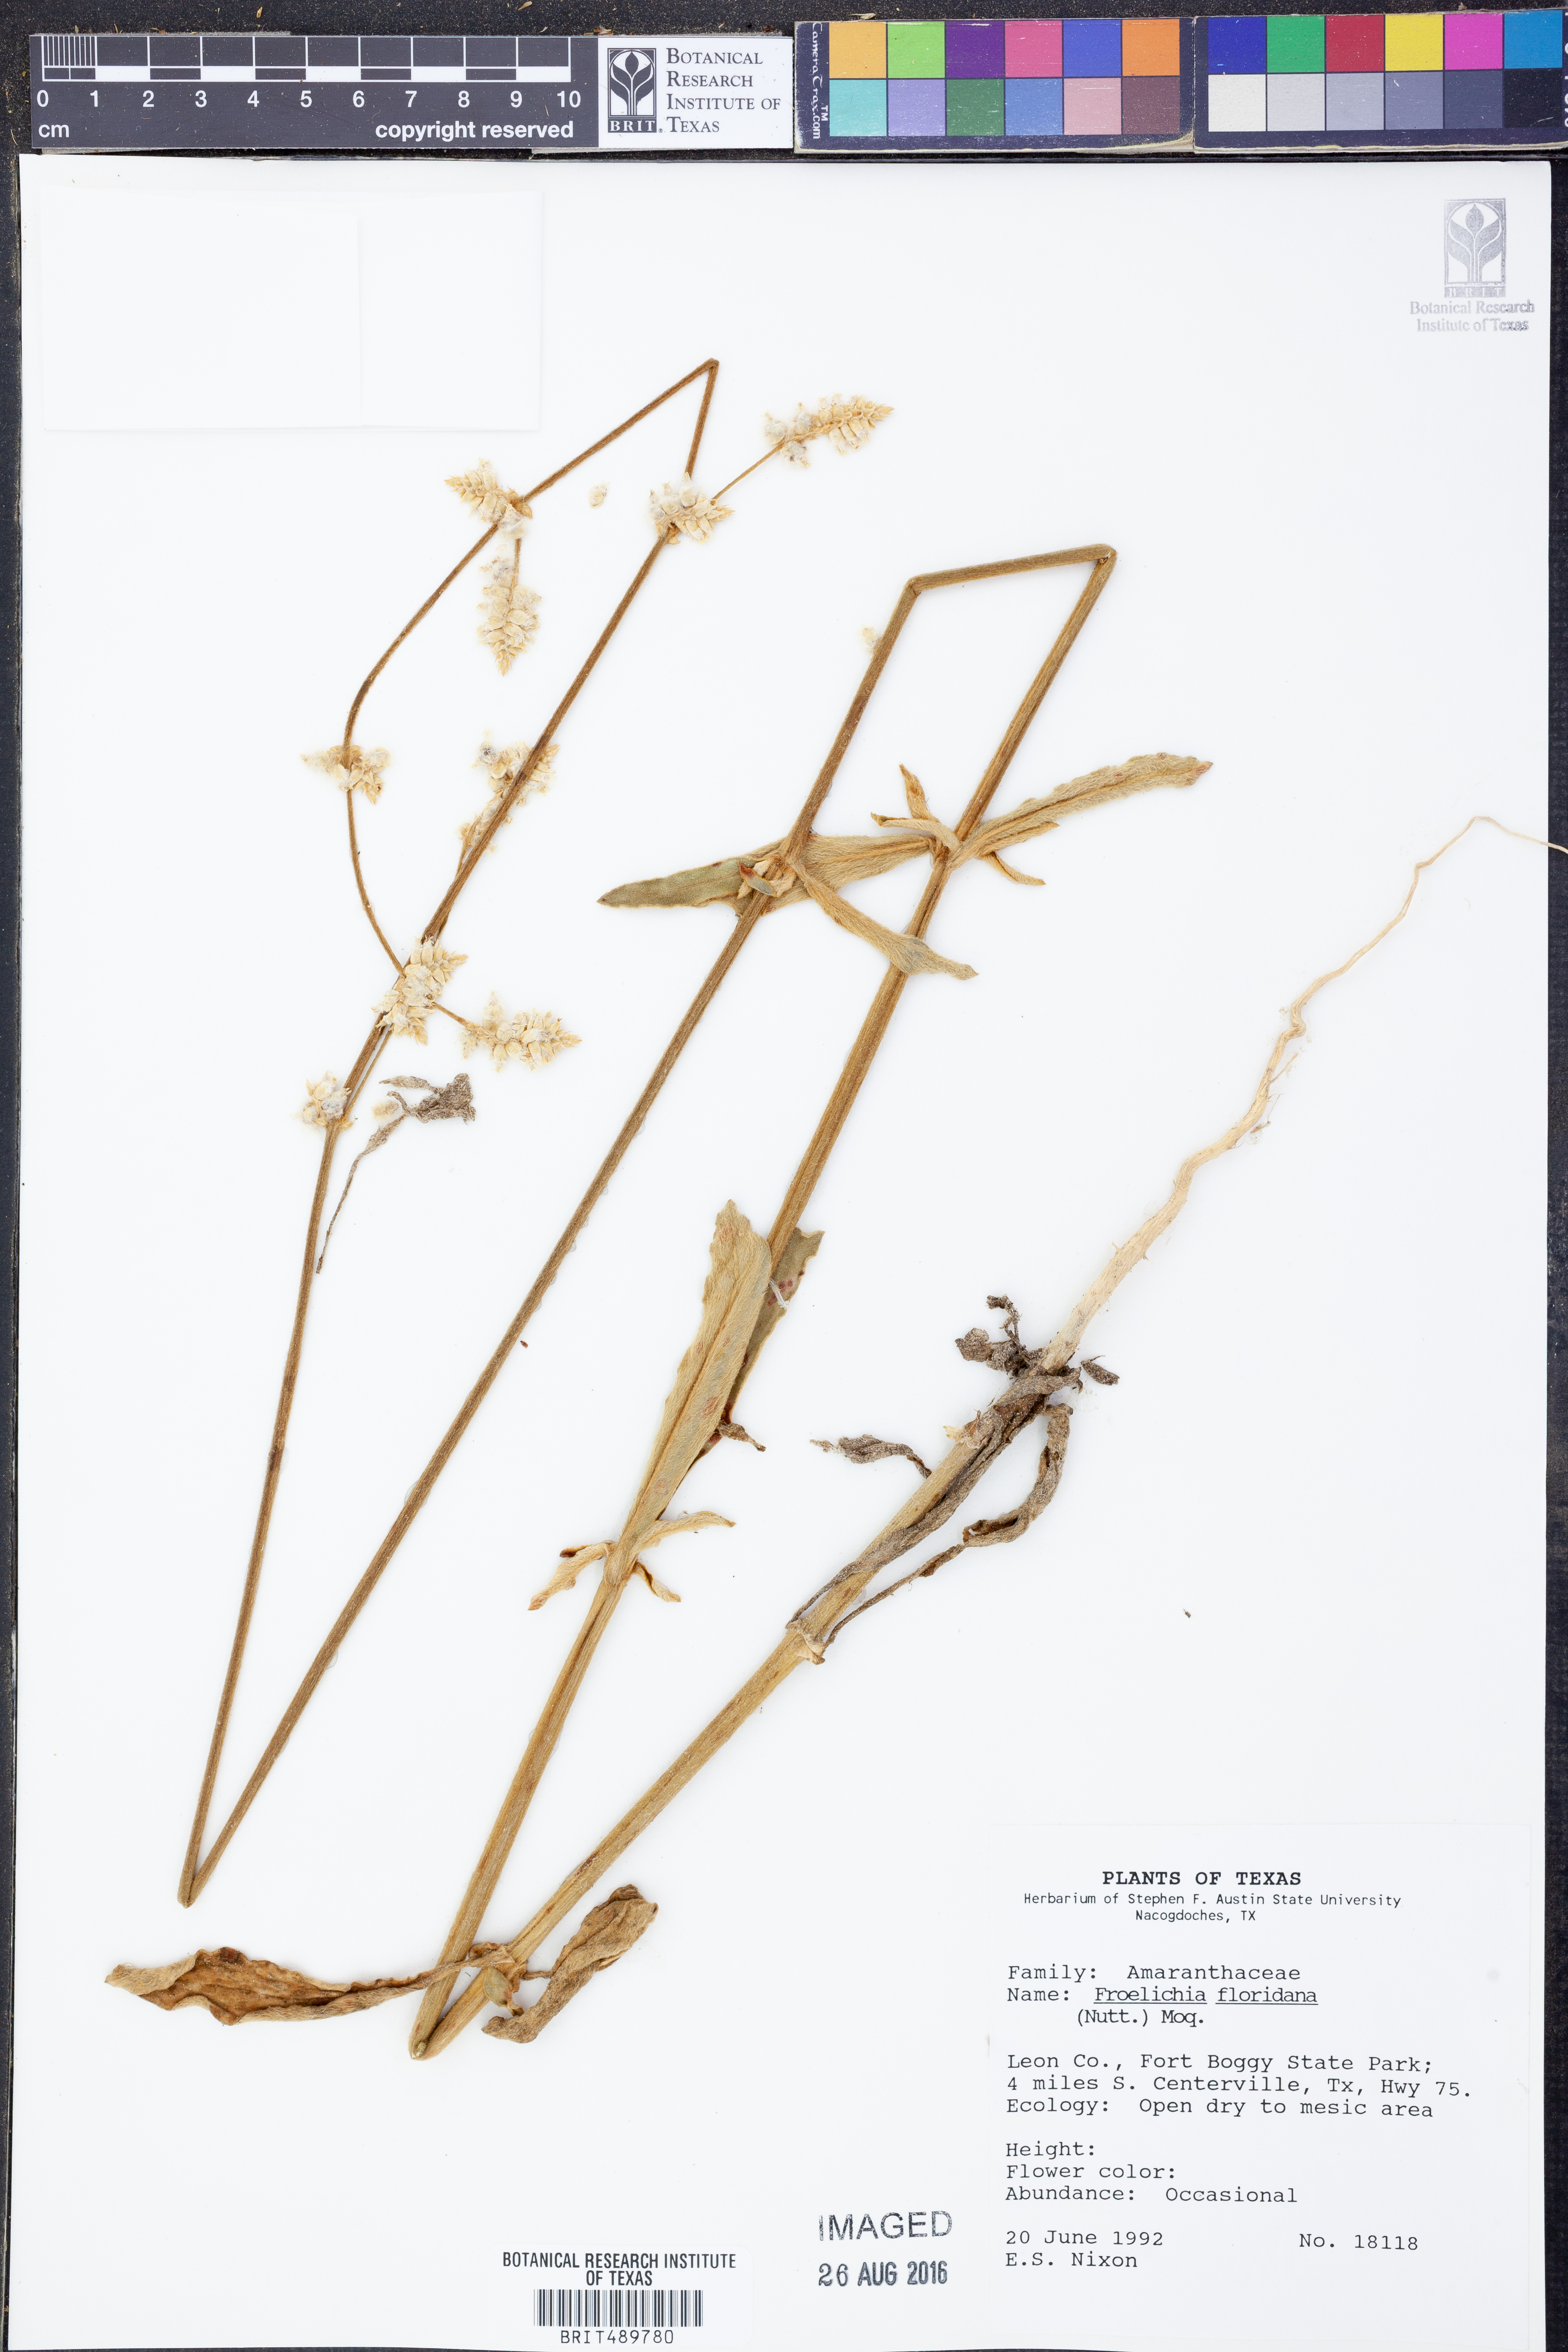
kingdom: Plantae
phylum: Tracheophyta
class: Magnoliopsida
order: Caryophyllales
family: Amaranthaceae
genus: Froelichia
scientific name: Froelichia floridana
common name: Florida snake-cotton
